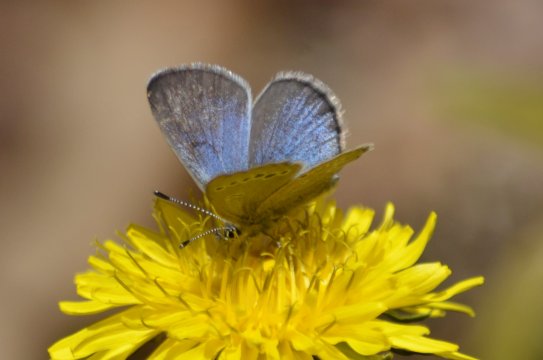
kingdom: Animalia
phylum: Arthropoda
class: Insecta
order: Lepidoptera
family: Lycaenidae
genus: Glaucopsyche
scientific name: Glaucopsyche lygdamus
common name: Silvery Blue
